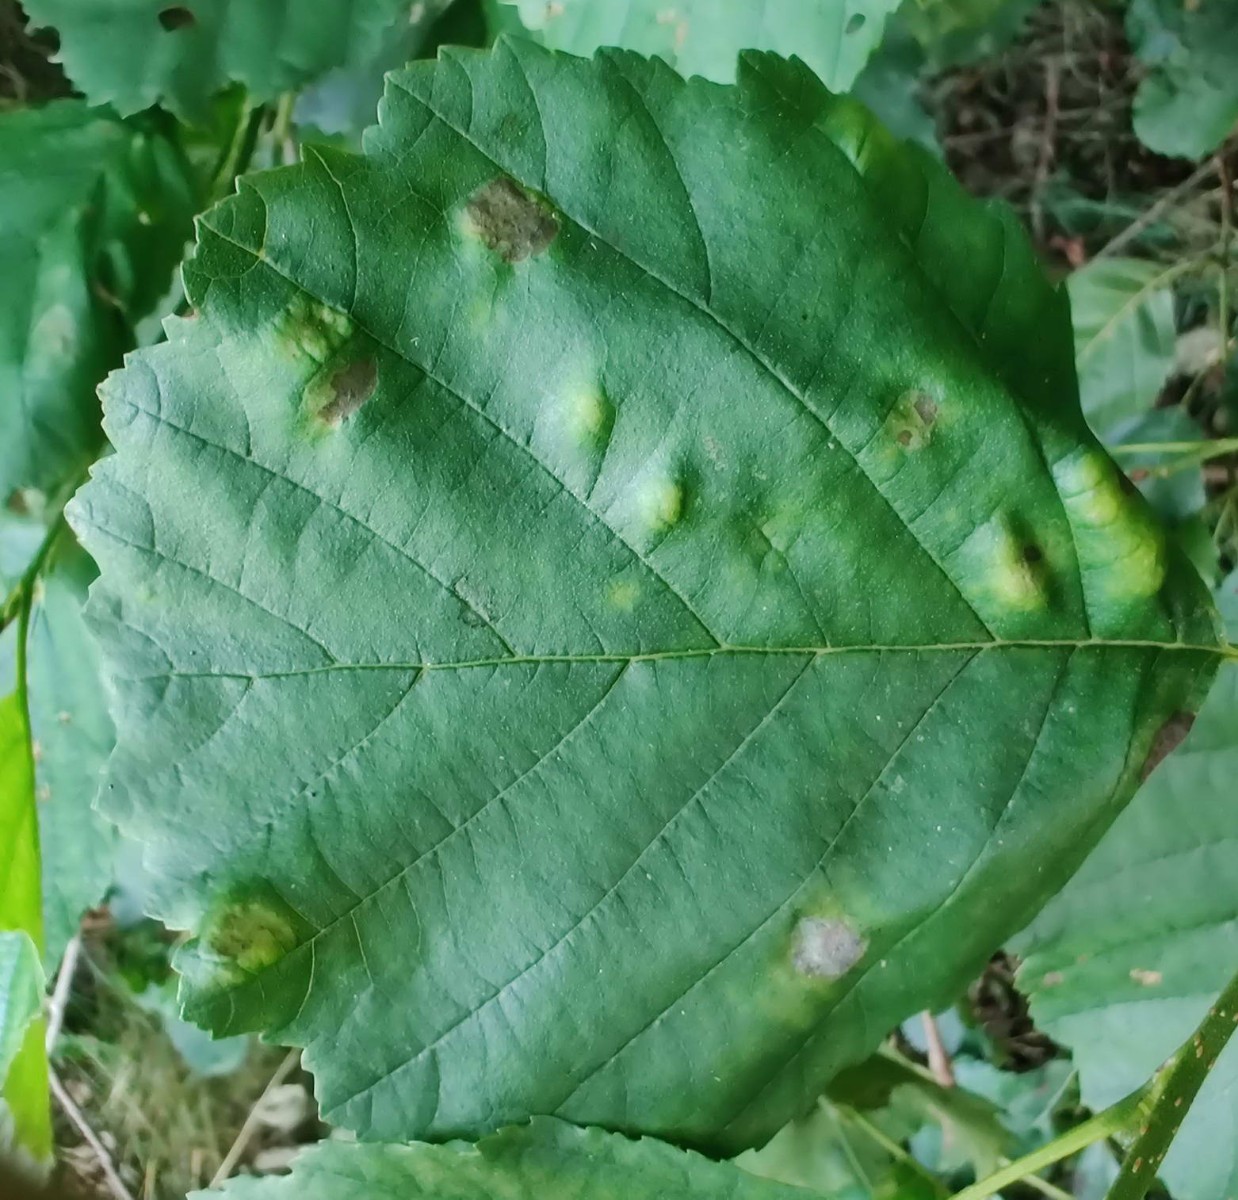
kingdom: Fungi
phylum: Ascomycota
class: Taphrinomycetes
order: Taphrinales
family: Taphrinaceae
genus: Taphrina
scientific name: Taphrina sadebeckii
